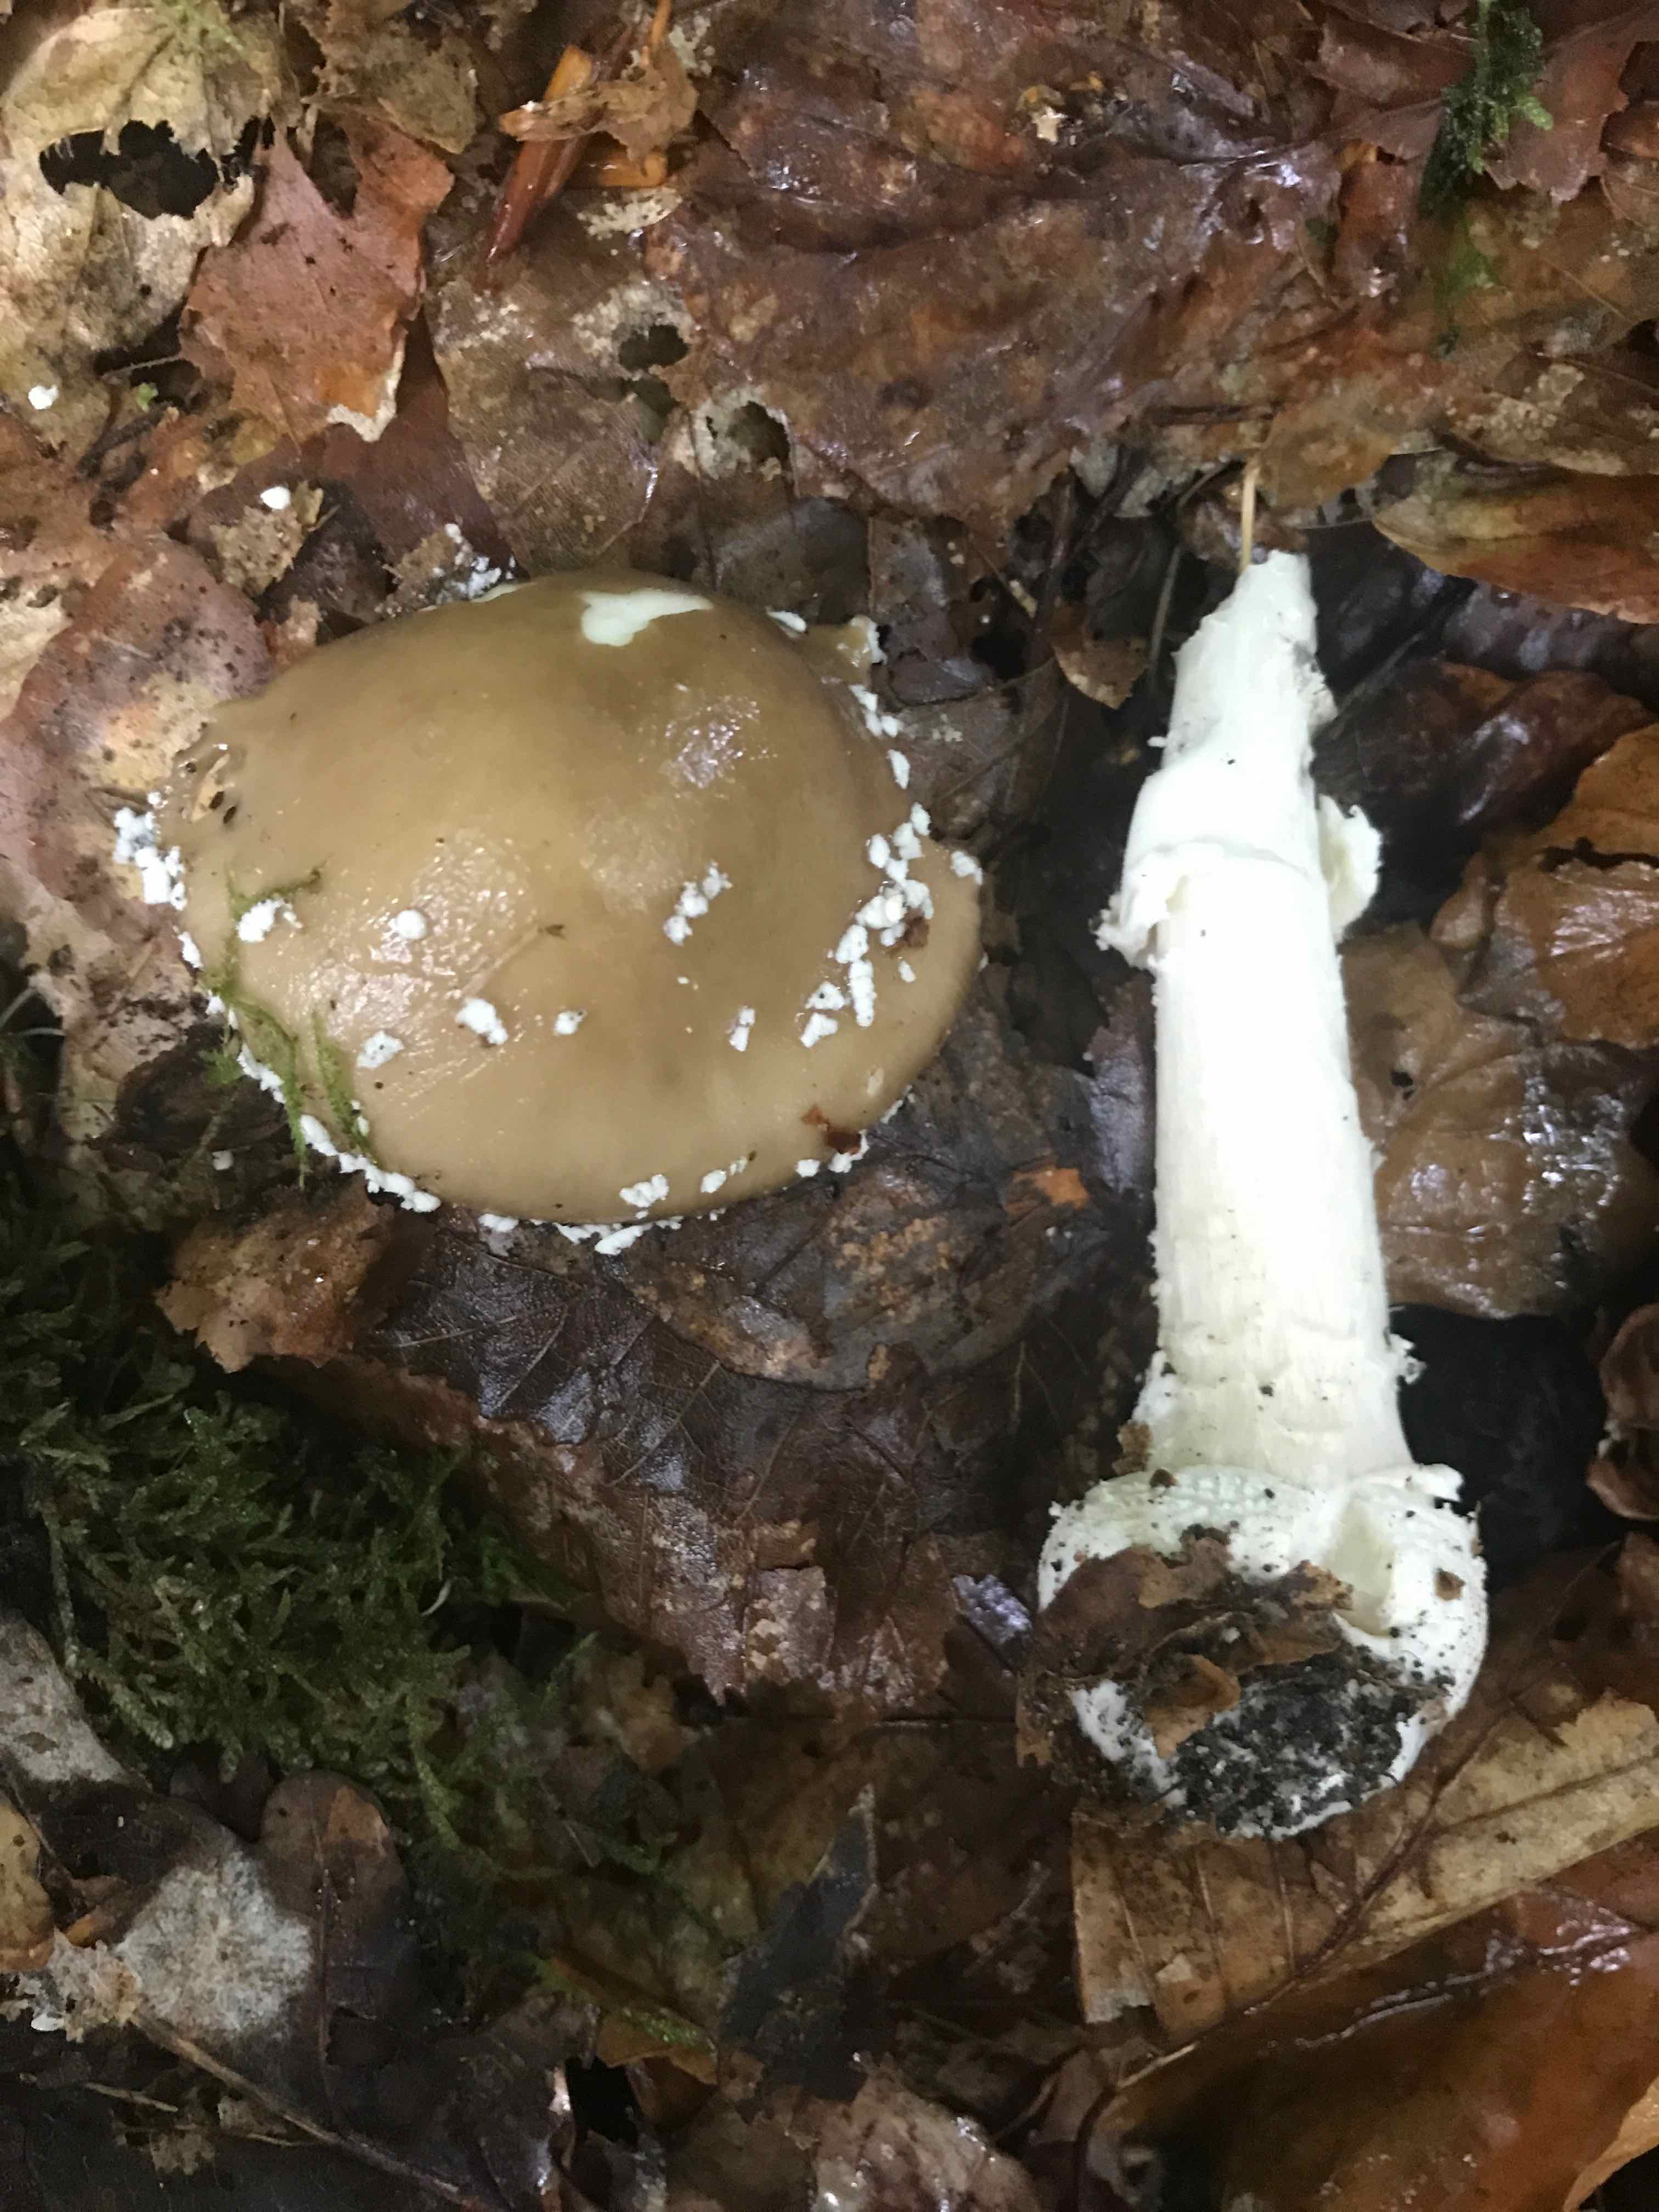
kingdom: Fungi
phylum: Basidiomycota
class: Agaricomycetes
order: Agaricales
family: Amanitaceae
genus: Amanita
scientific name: Amanita pantherina
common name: panter-fluesvamp
